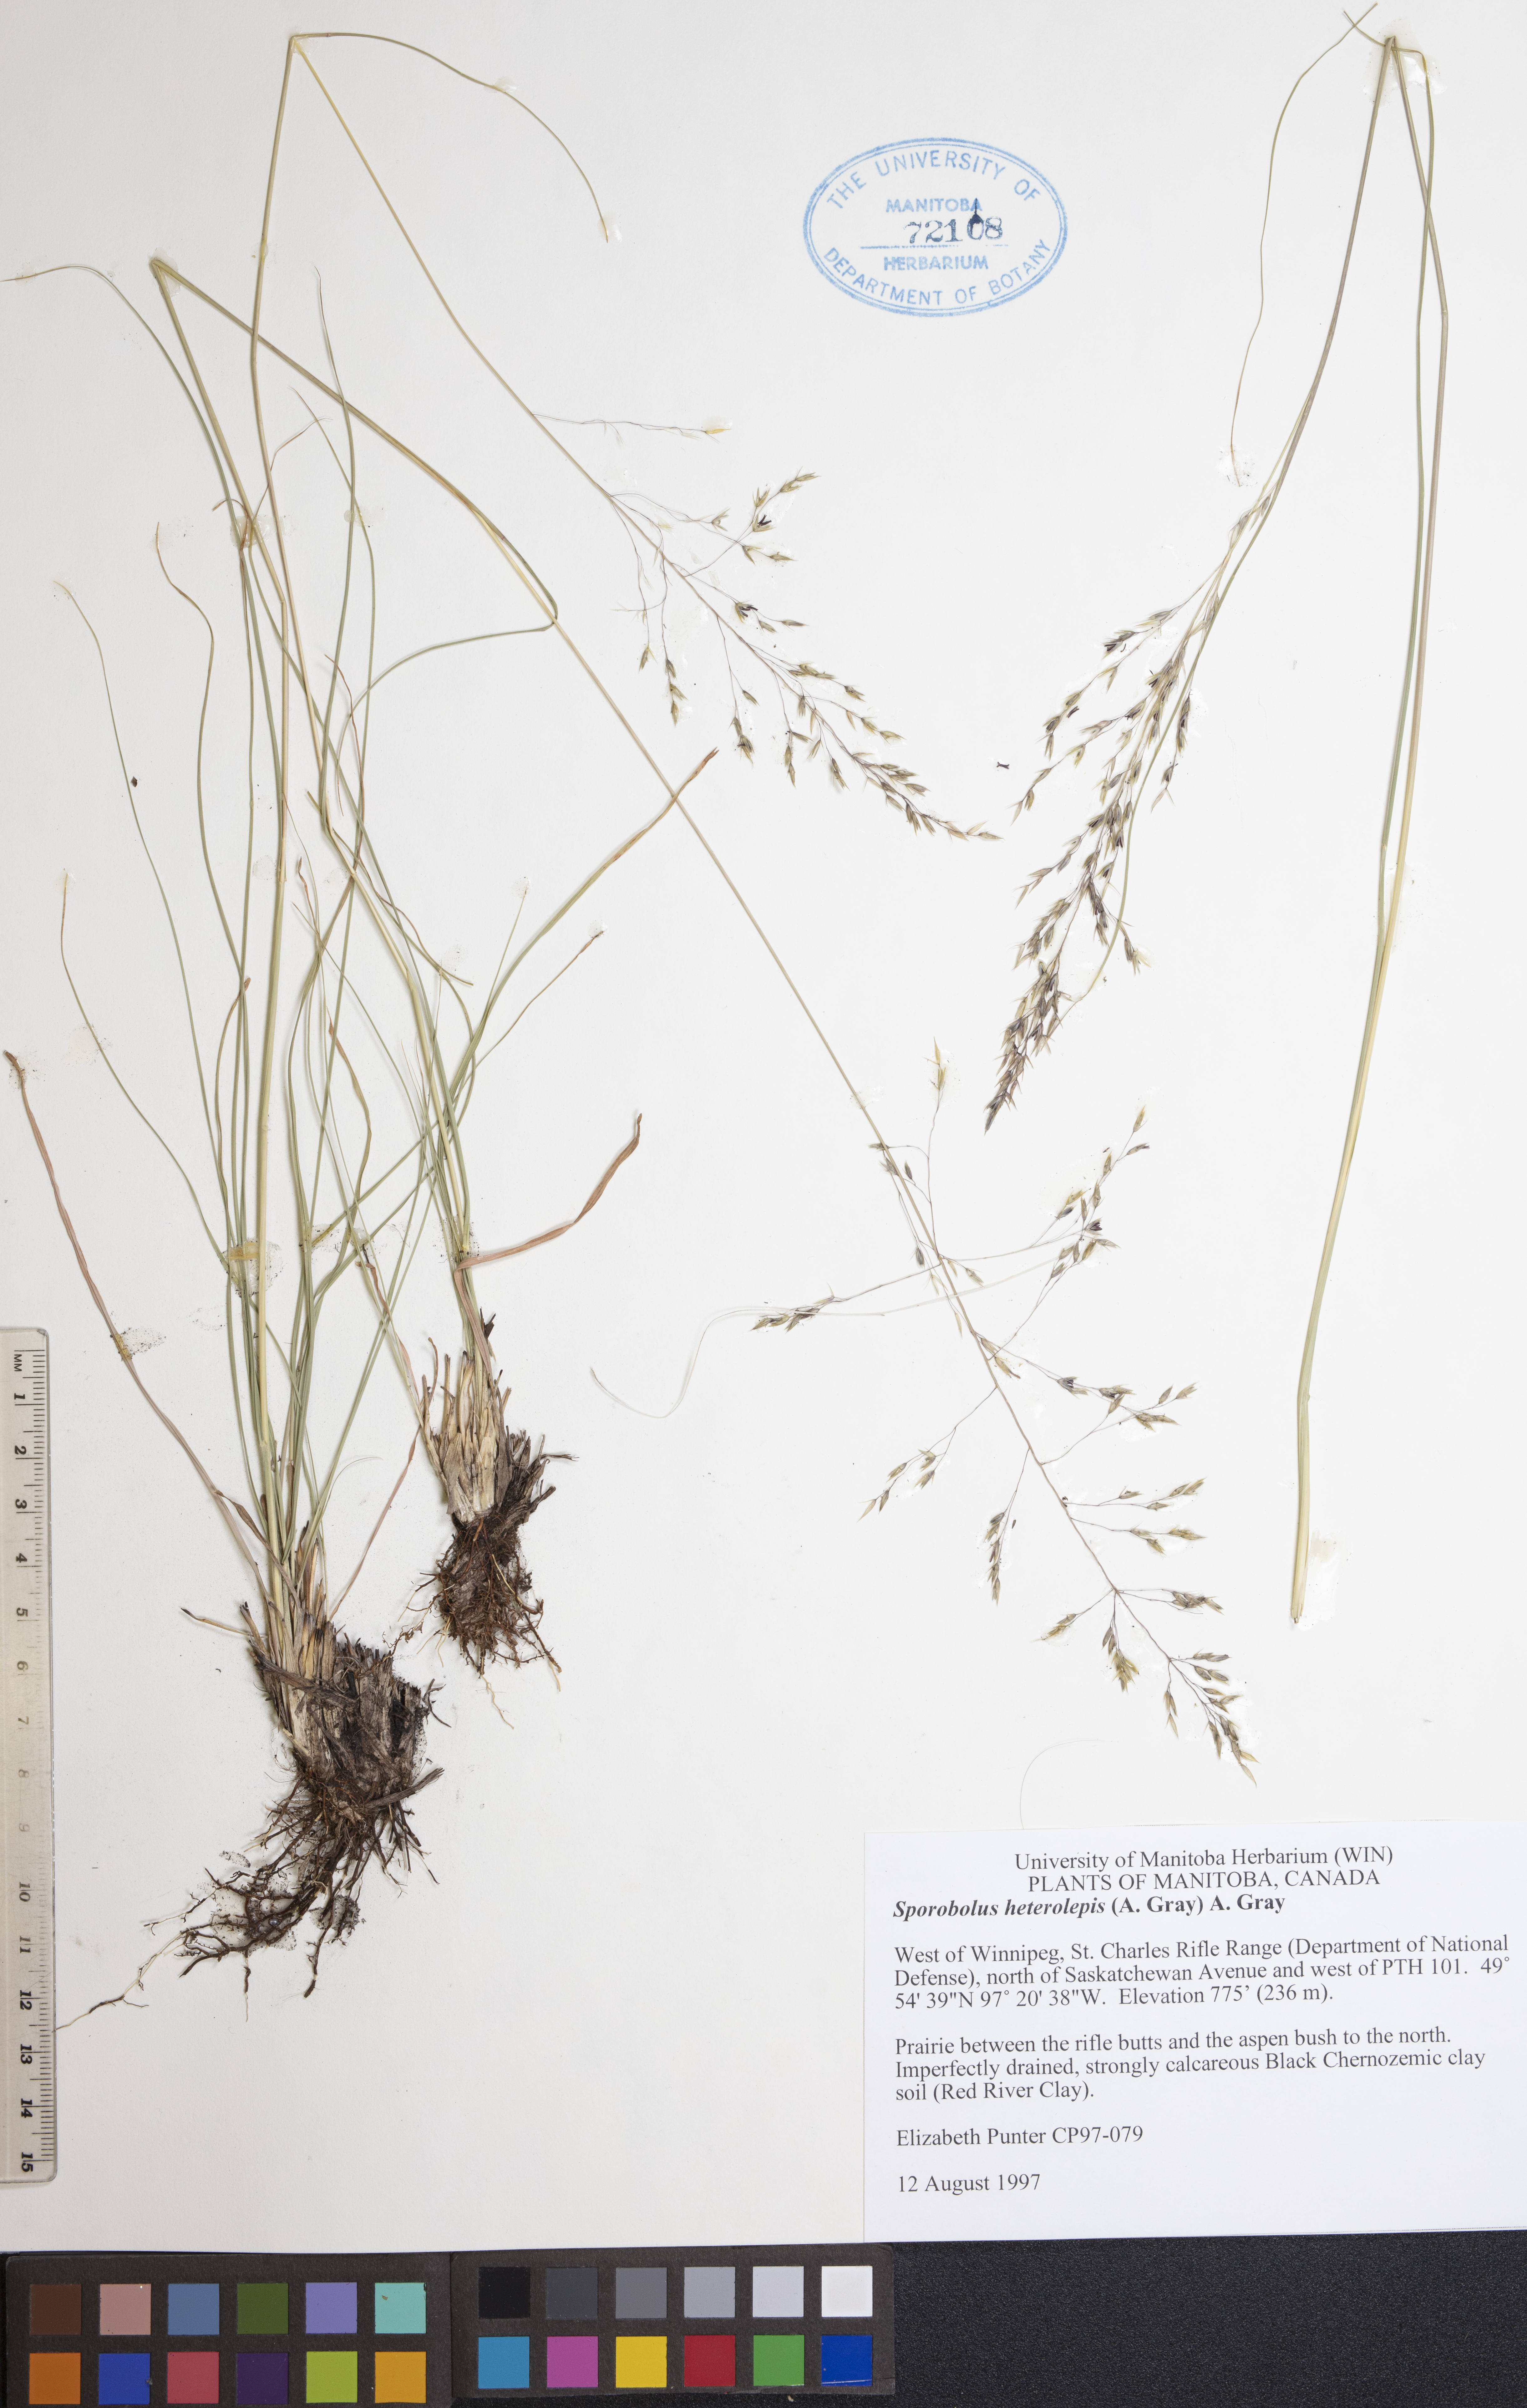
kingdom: Plantae
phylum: Tracheophyta
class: Liliopsida
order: Poales
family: Poaceae
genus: Sporobolus
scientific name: Sporobolus heterolepis
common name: Prairie dropseed
